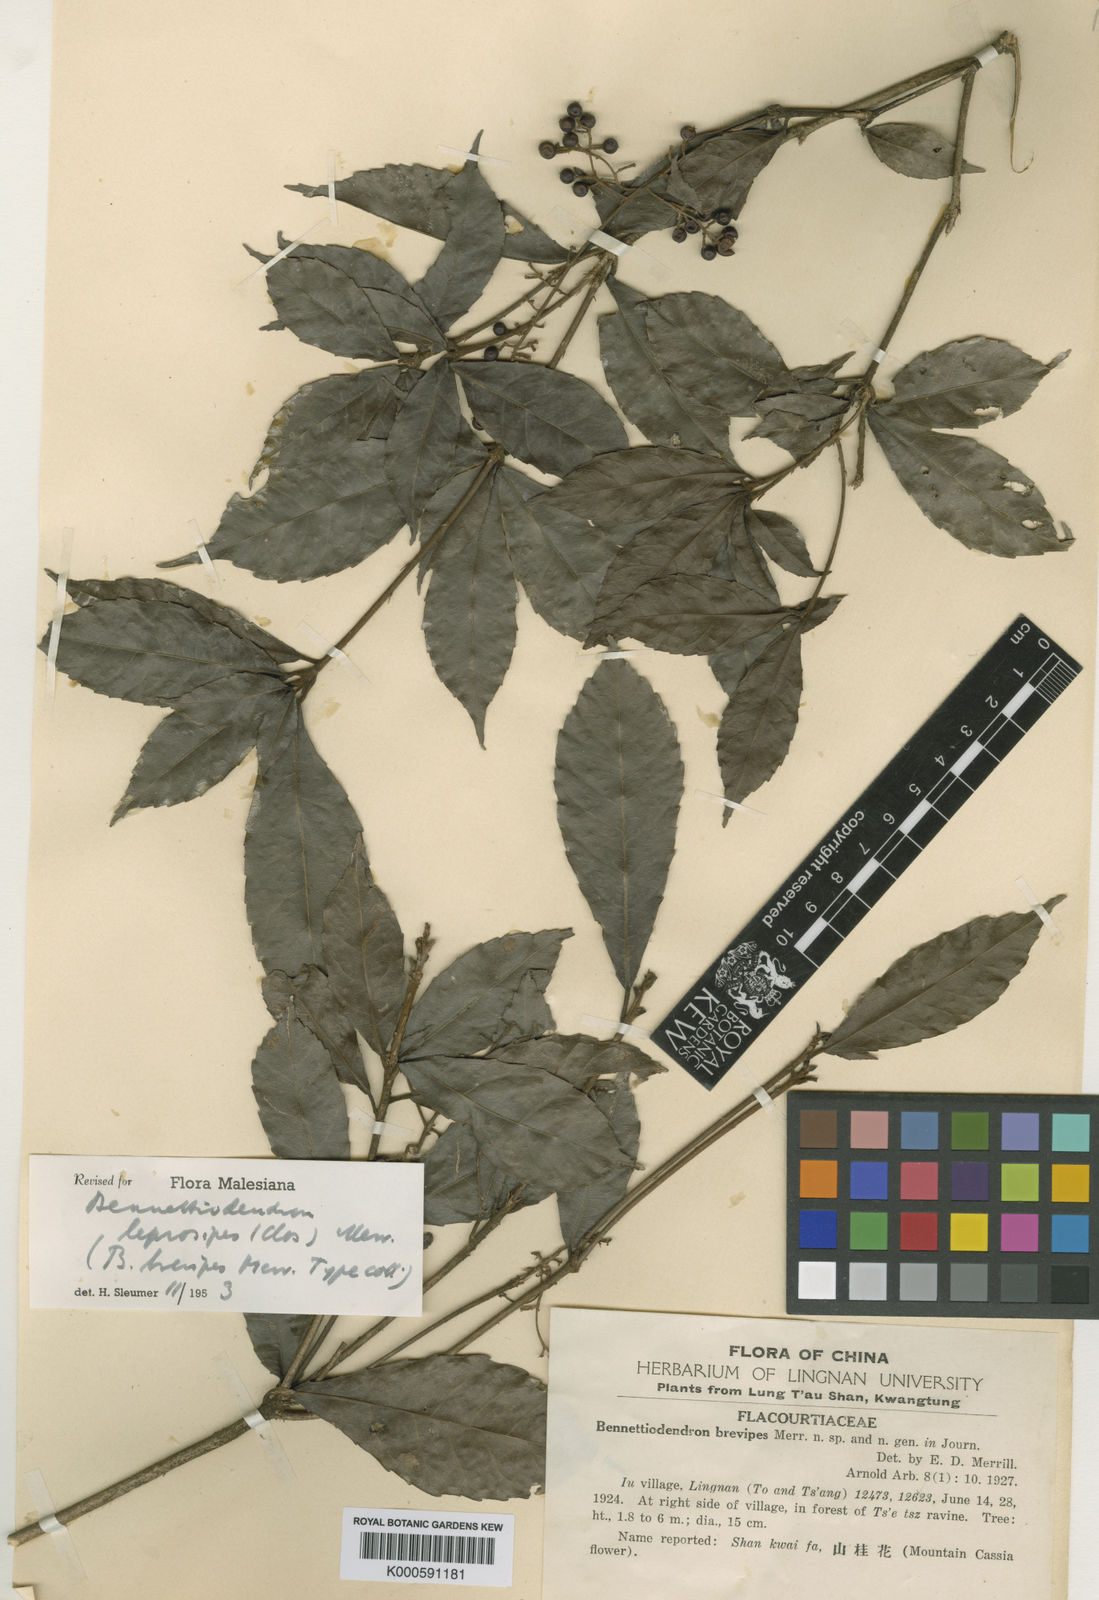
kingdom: Plantae
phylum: Tracheophyta
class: Magnoliopsida
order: Malpighiales
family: Salicaceae
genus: Bennettiodendron
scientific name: Bennettiodendron leprosipes
